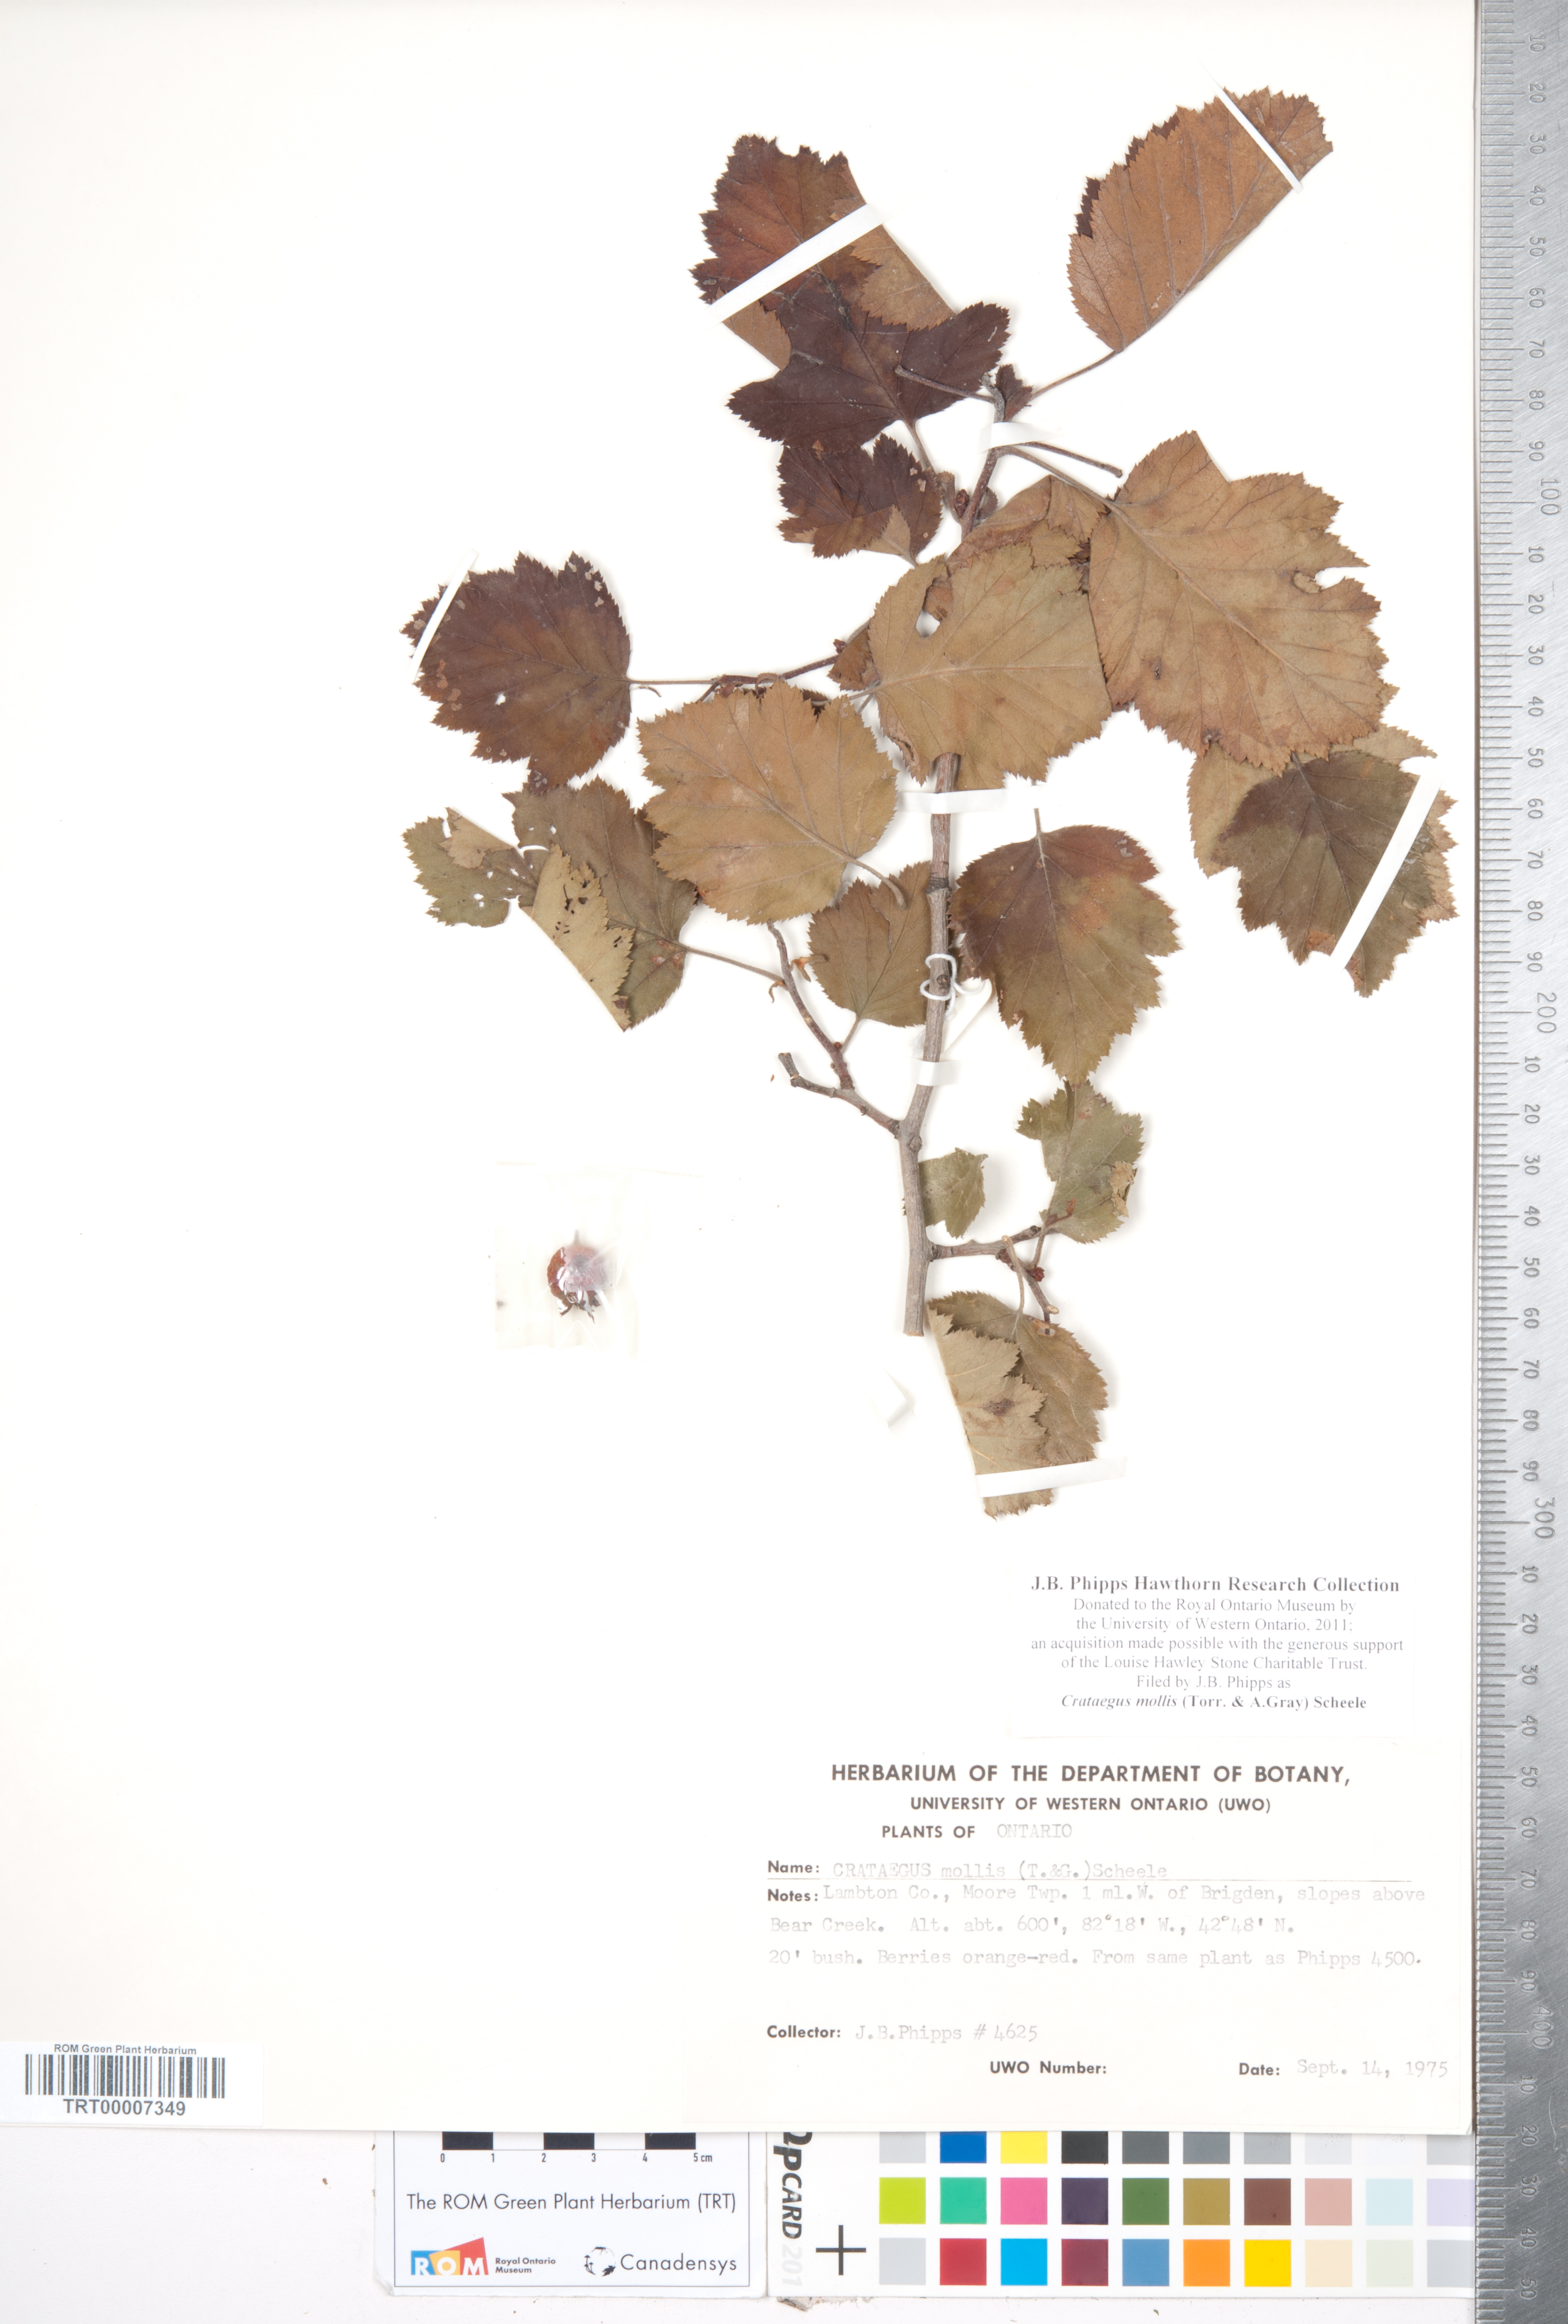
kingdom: Plantae
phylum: Tracheophyta
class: Magnoliopsida
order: Rosales
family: Rosaceae
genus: Crataegus
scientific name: Crataegus mollis
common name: Downy hawthorn
